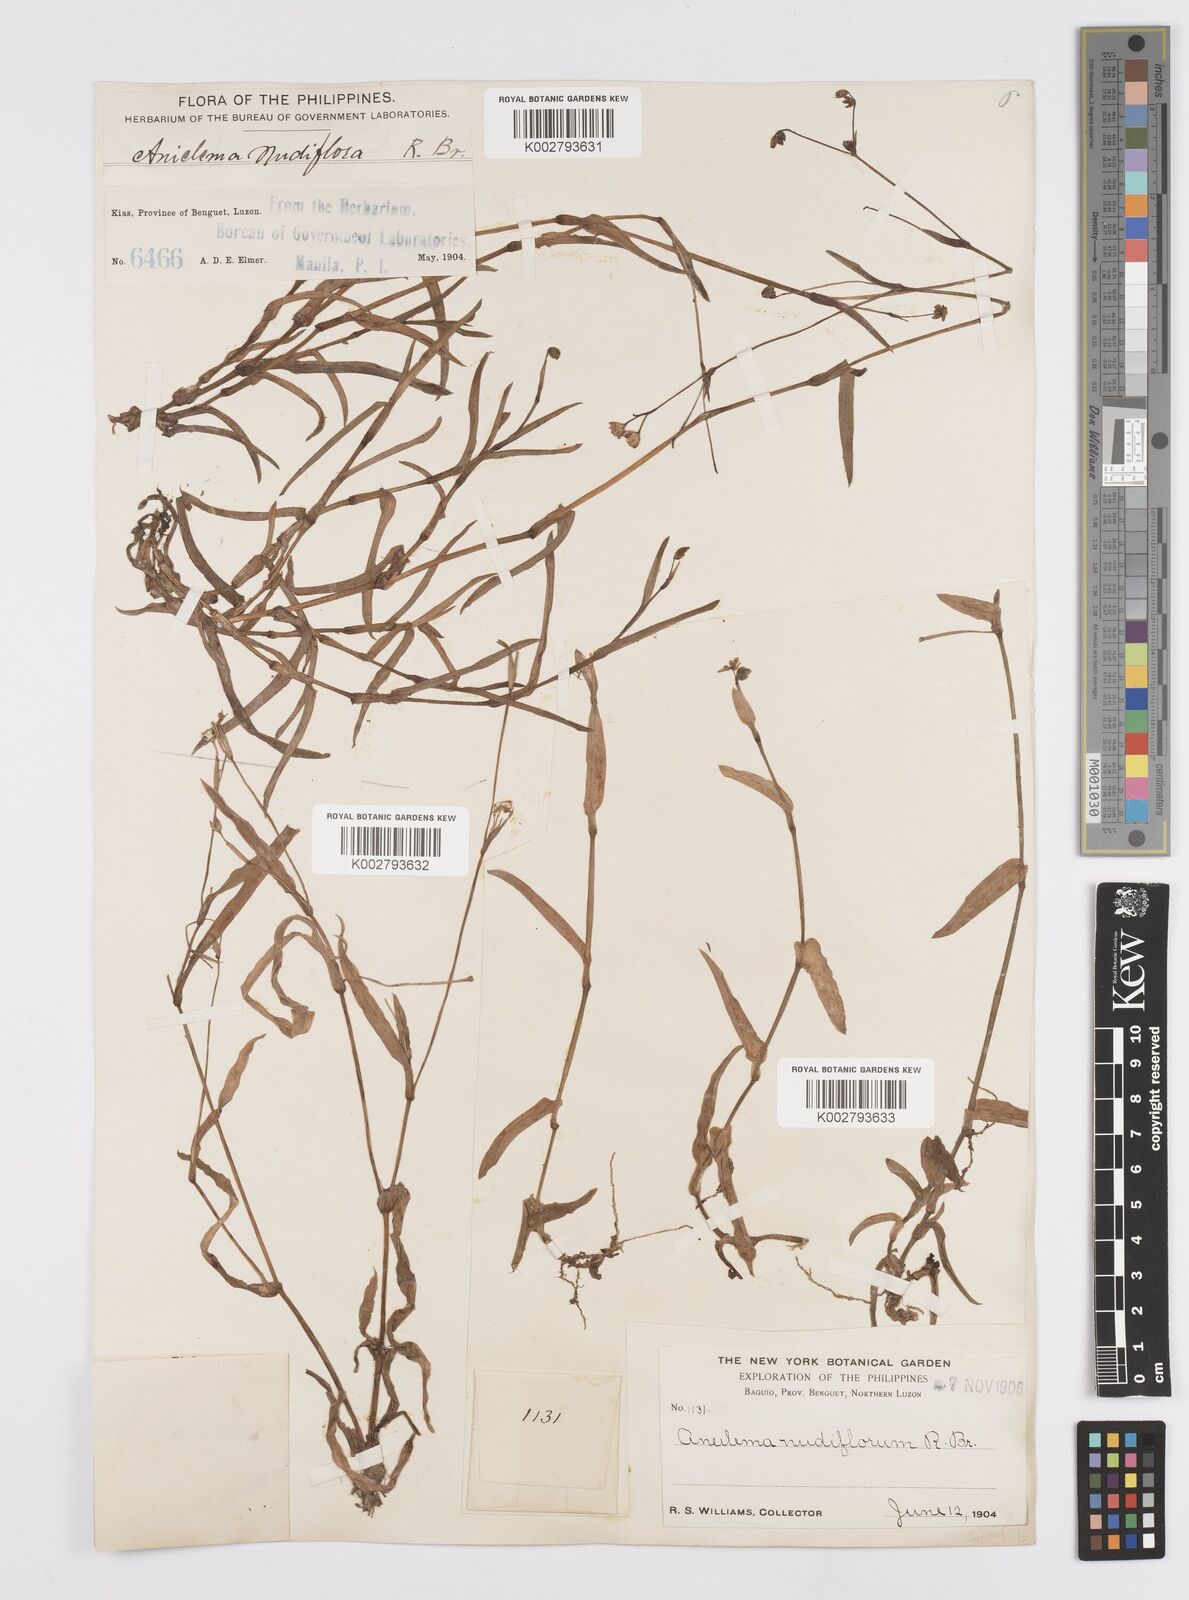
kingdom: Plantae
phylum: Tracheophyta
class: Liliopsida
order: Commelinales
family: Commelinaceae
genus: Murdannia
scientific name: Murdannia nudiflora
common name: Nakedstem dewflower
